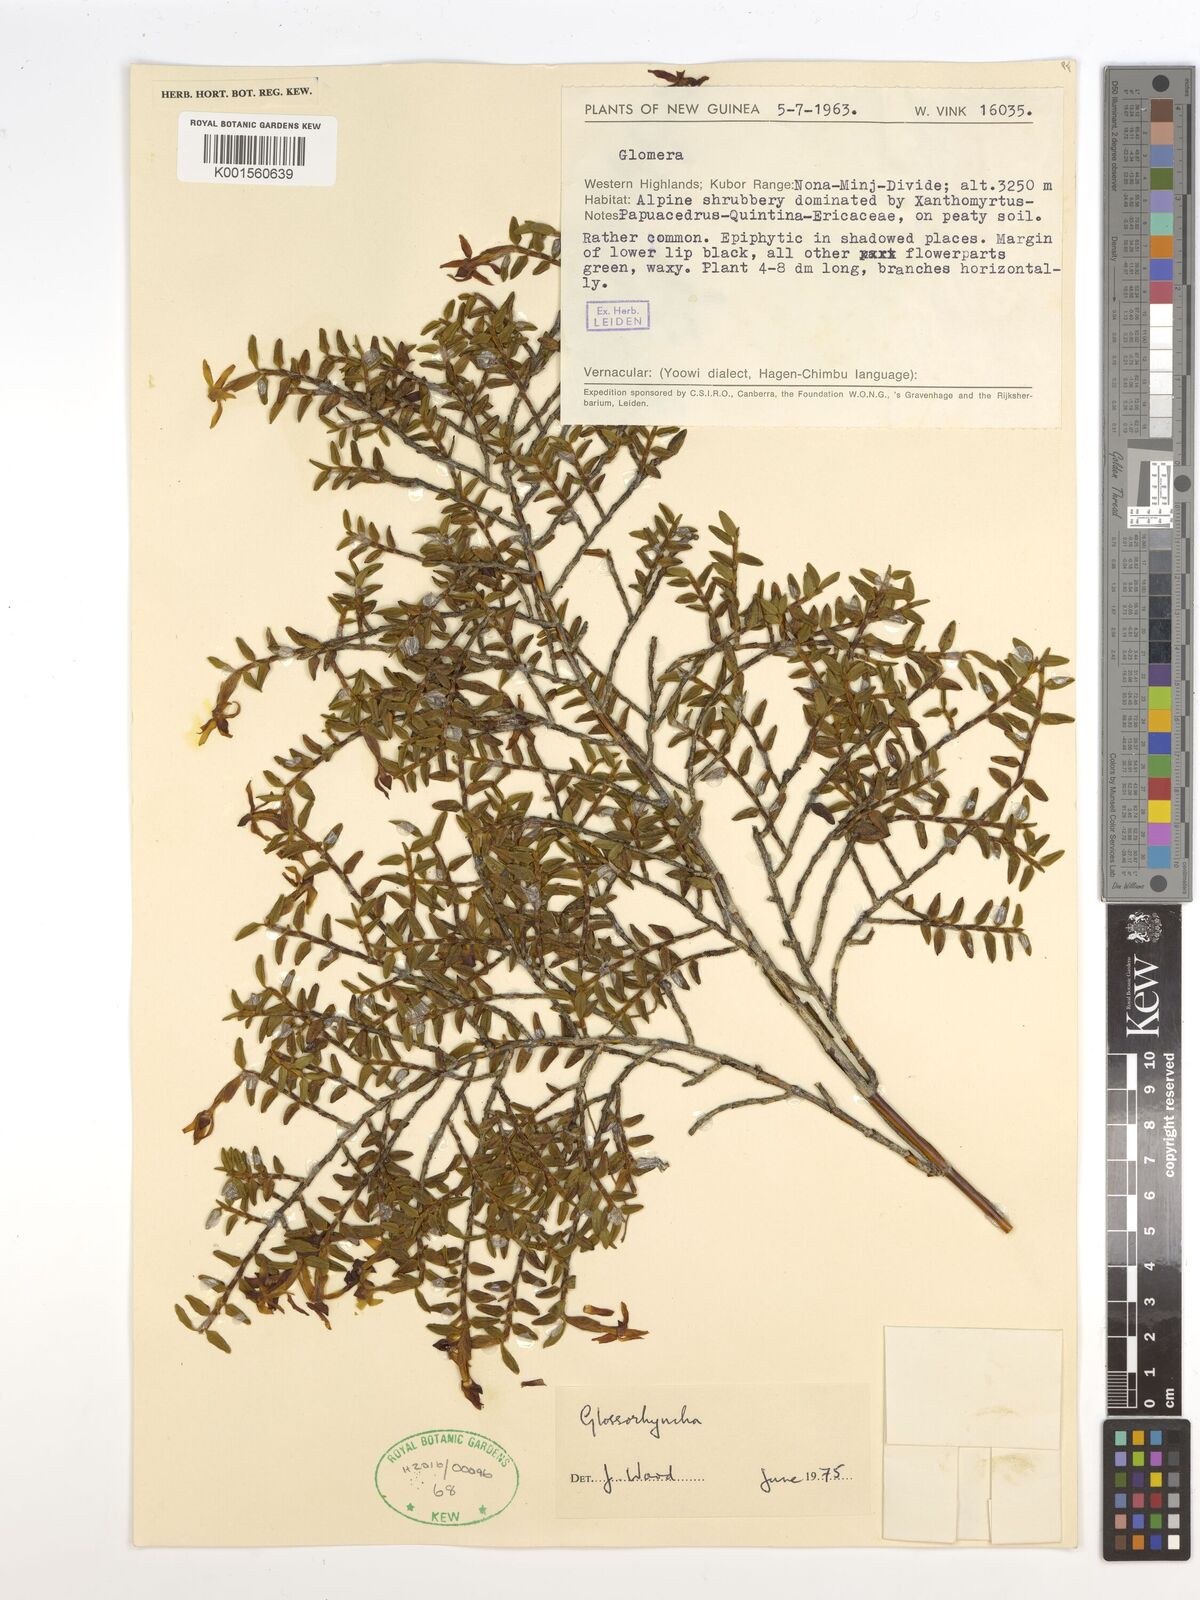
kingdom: Plantae
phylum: Tracheophyta
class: Liliopsida
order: Asparagales
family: Orchidaceae
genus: Glomera
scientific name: Glomera
